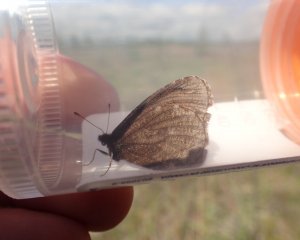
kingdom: Animalia
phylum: Arthropoda
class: Insecta
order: Lepidoptera
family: Nymphalidae
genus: Erebia
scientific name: Erebia discoidalis
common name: Red-disked Alpine
